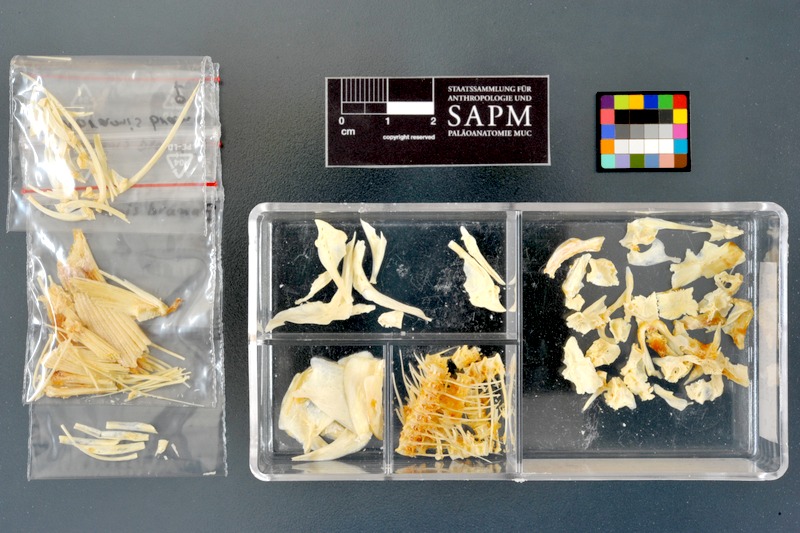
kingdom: Animalia
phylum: Chordata
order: Cypriniformes
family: Cyprinidae
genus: Abramis
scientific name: Abramis brama
